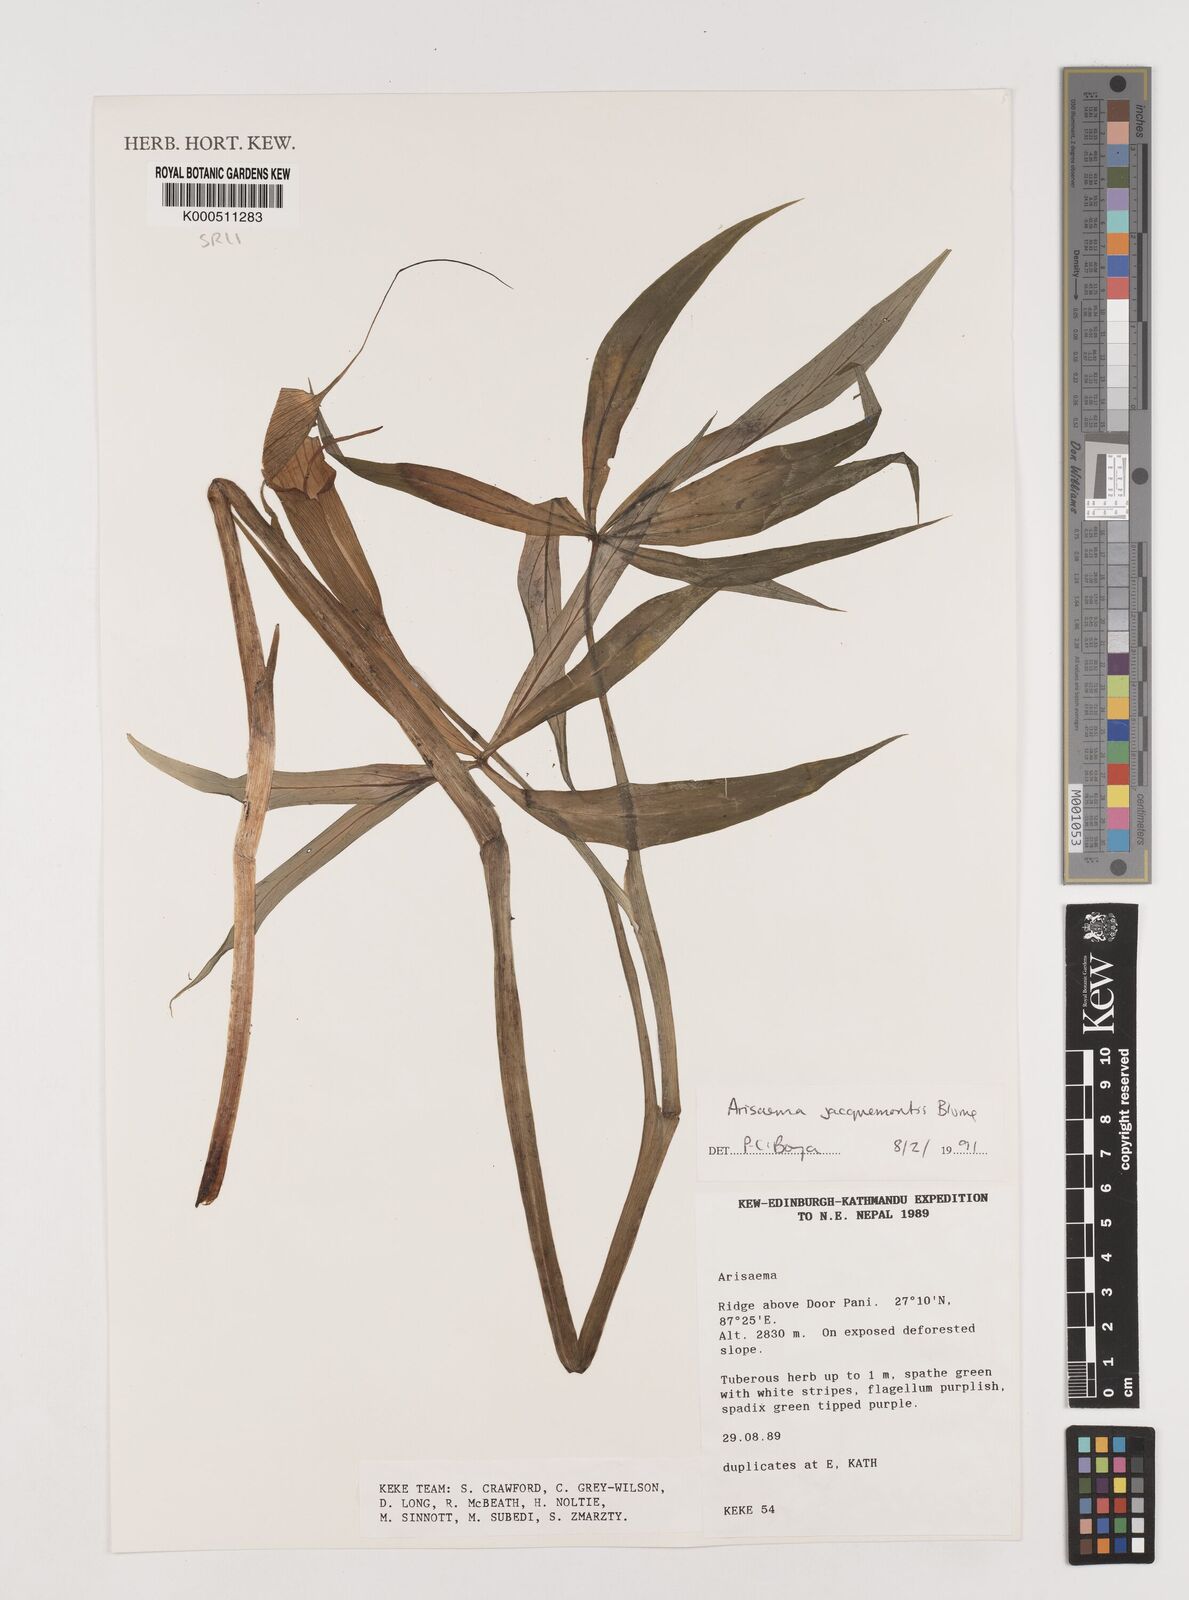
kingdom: Plantae
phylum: Tracheophyta
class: Liliopsida
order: Alismatales
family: Araceae
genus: Arisaema
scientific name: Arisaema jacquemontii
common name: Jacquemont's cobra-lily
